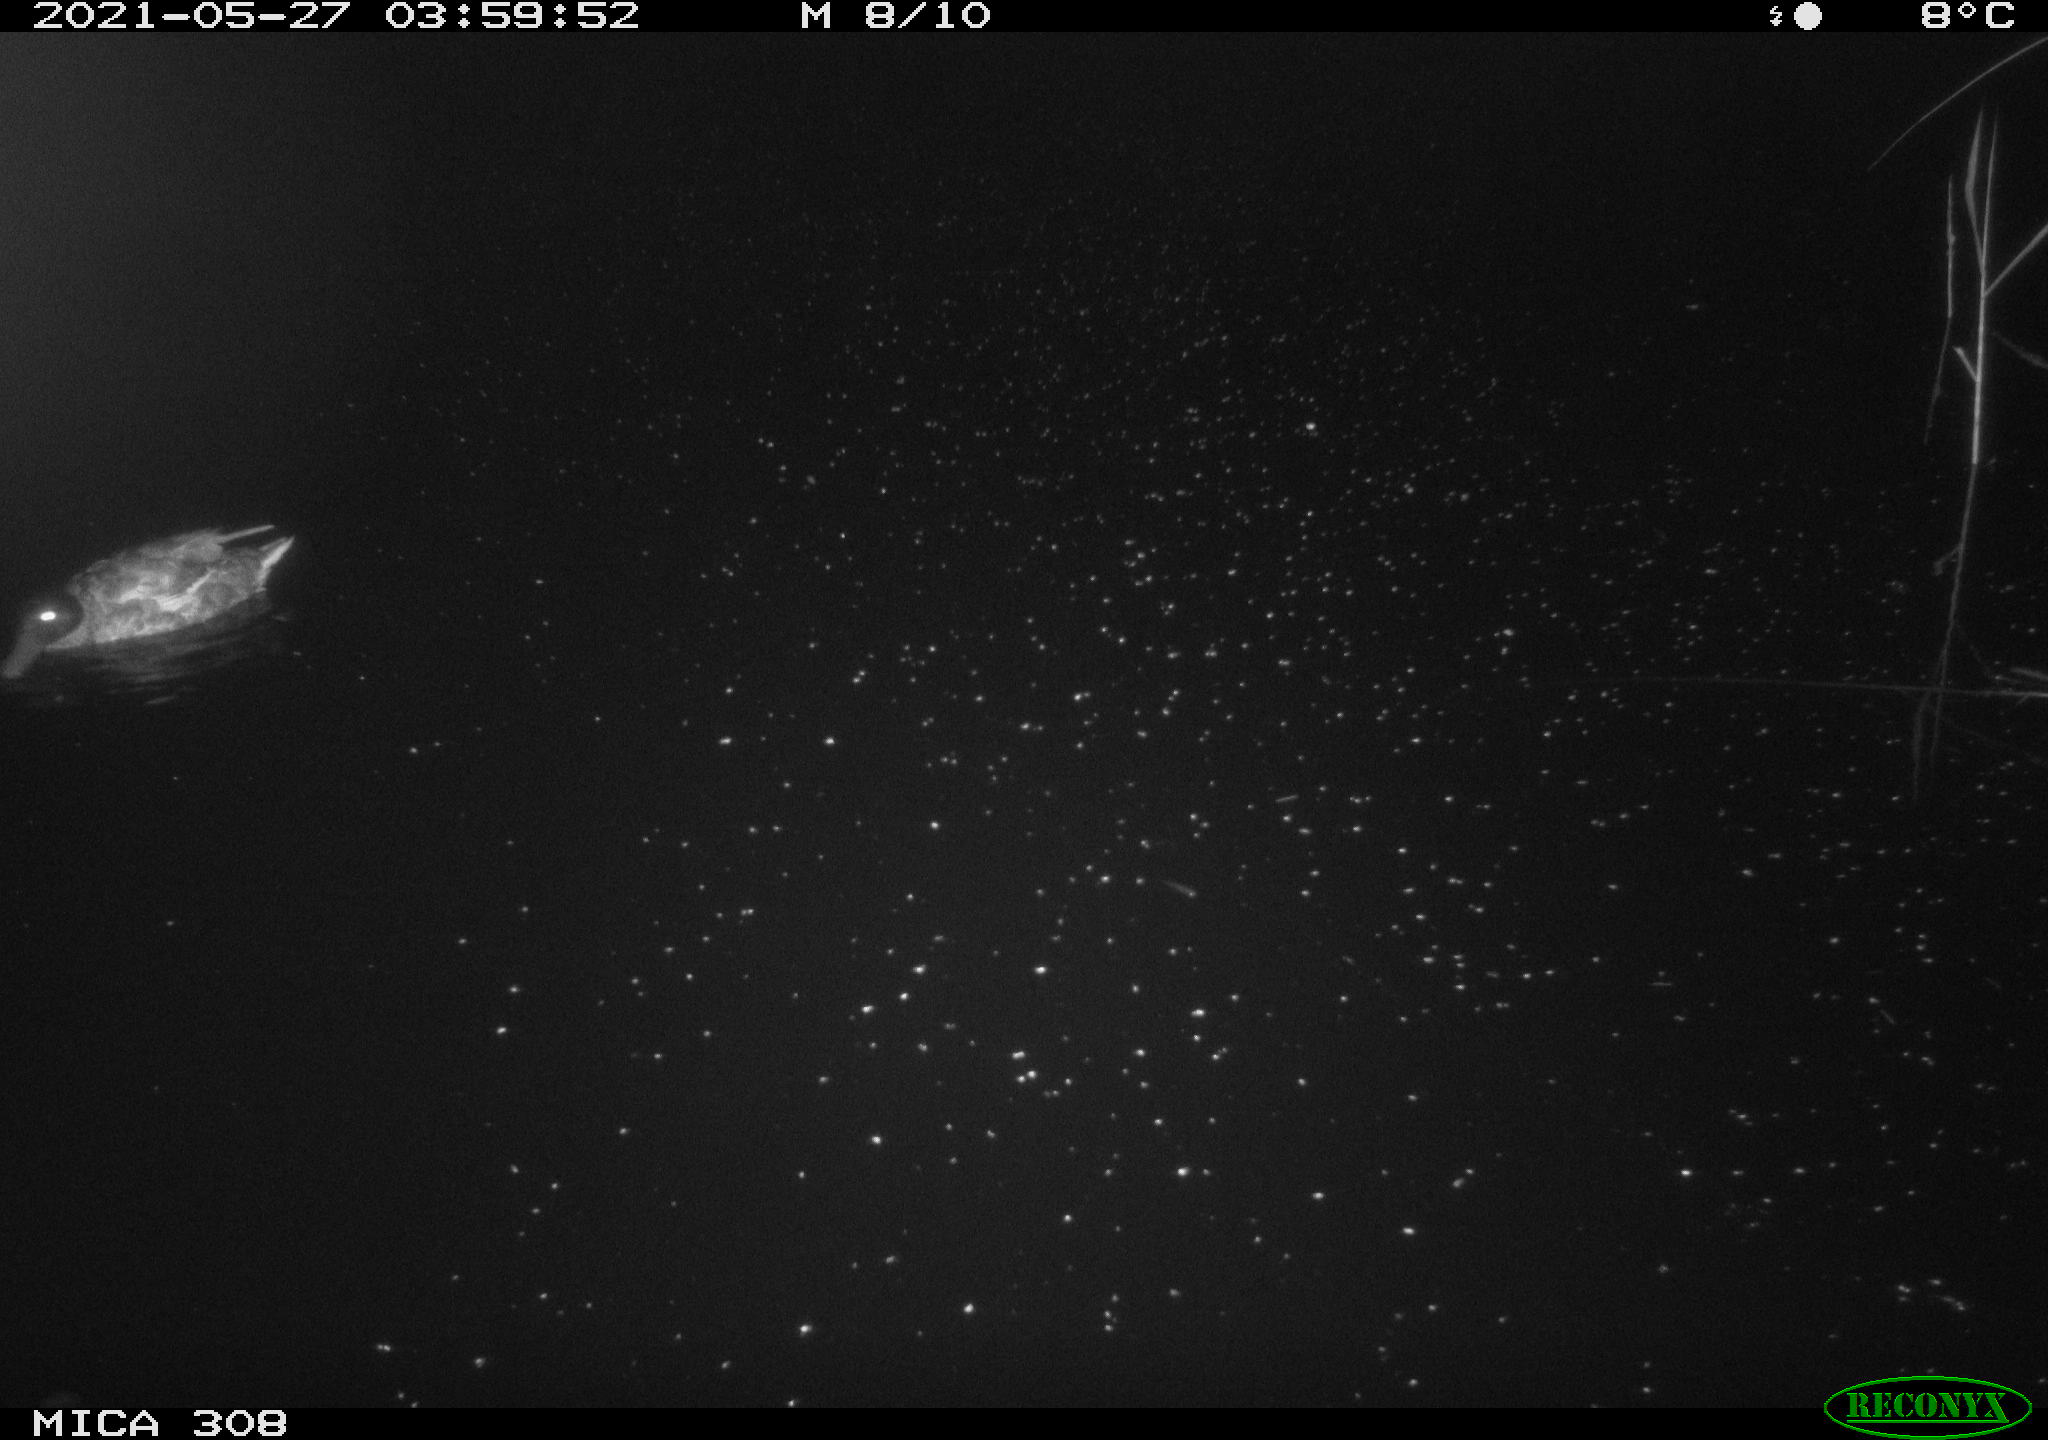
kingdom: Animalia
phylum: Chordata
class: Aves
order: Anseriformes
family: Anatidae
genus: Anas
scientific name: Anas platyrhynchos
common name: Mallard
